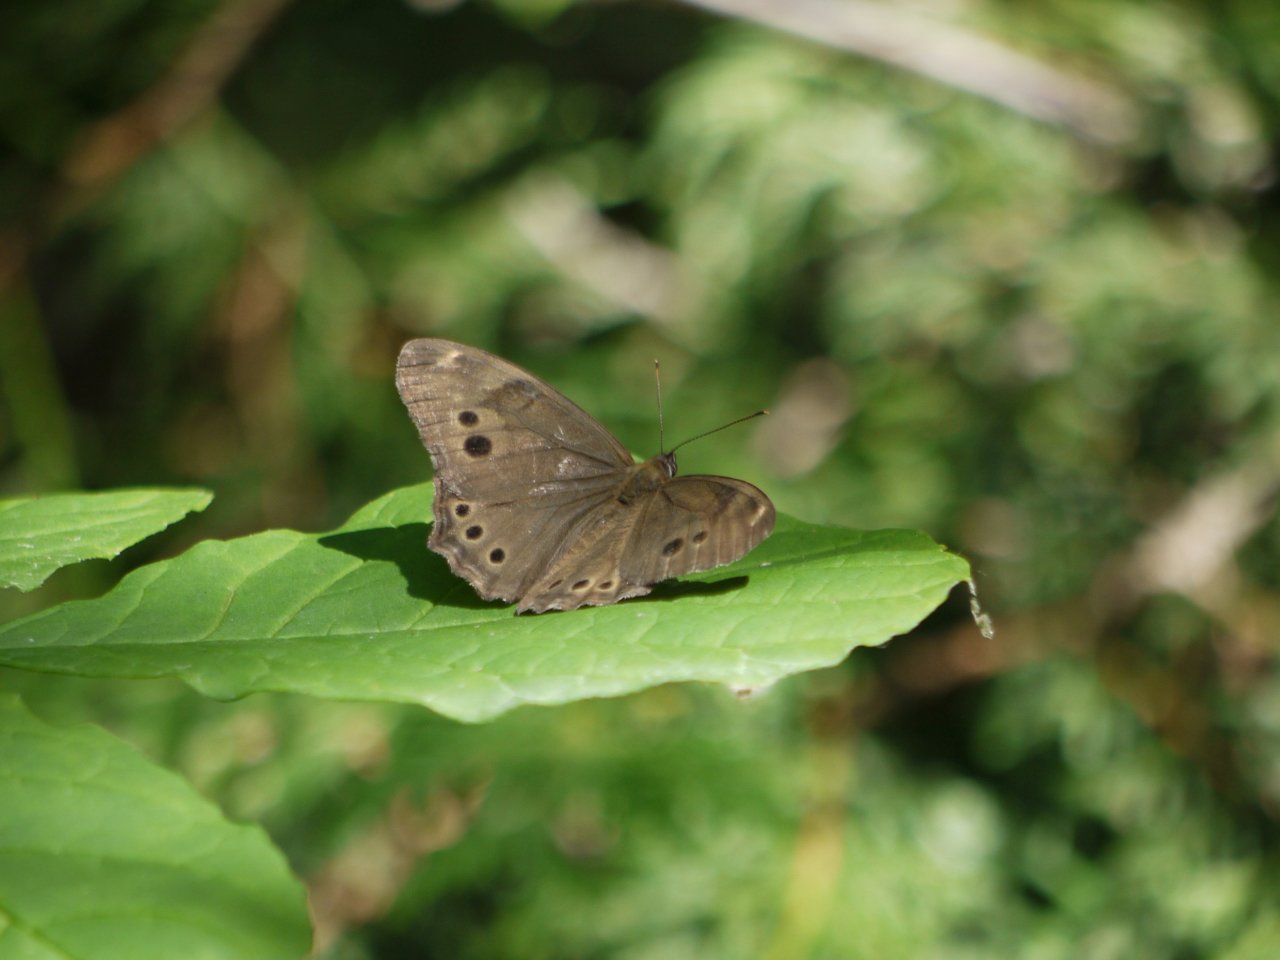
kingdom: Animalia
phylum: Arthropoda
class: Insecta
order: Lepidoptera
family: Nymphalidae
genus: Lethe
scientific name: Lethe anthedon
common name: Northern Pearly-Eye
